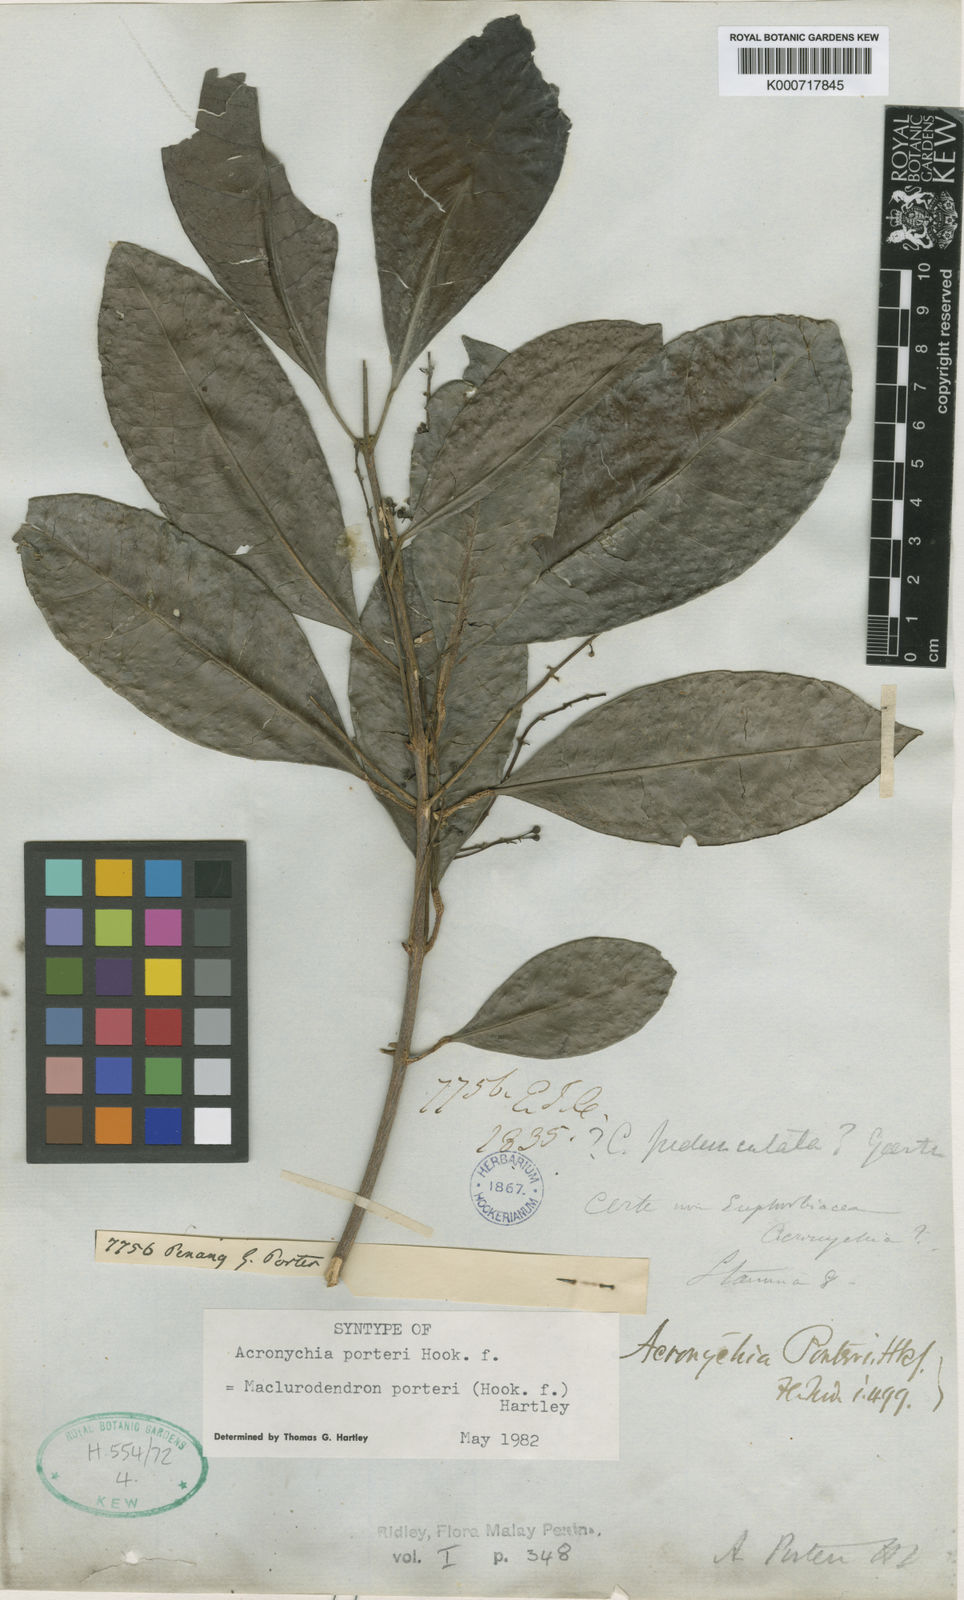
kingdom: Plantae
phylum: Tracheophyta
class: Magnoliopsida
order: Sapindales
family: Rutaceae
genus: Maclurodendron
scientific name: Maclurodendron porteri
